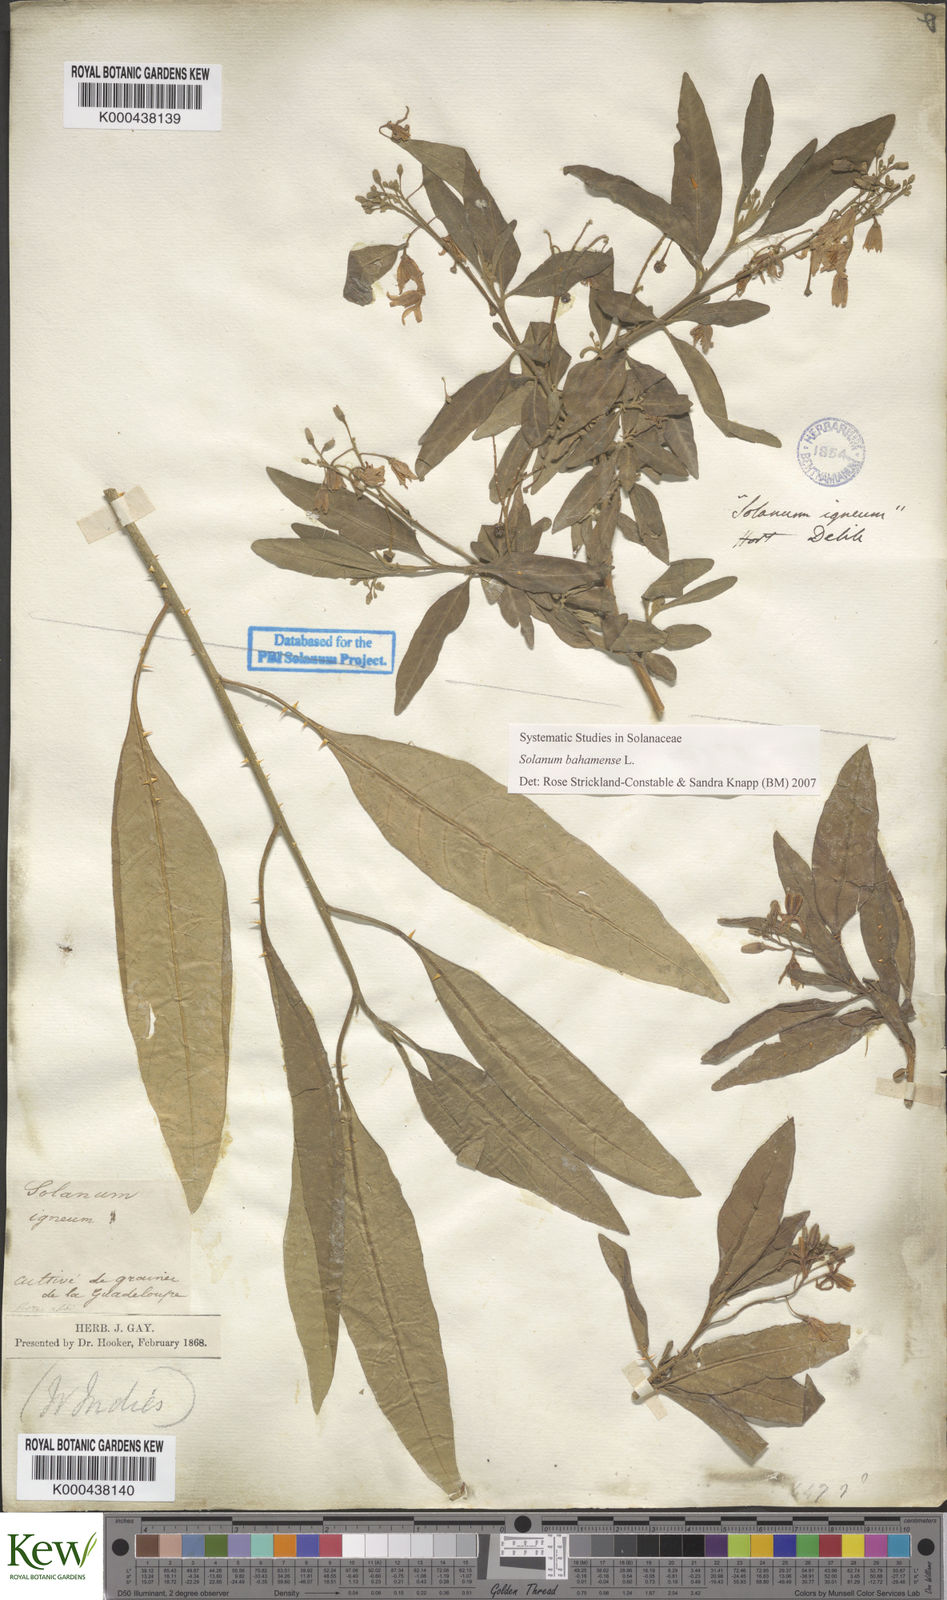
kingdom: Plantae
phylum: Tracheophyta
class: Magnoliopsida
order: Solanales
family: Solanaceae
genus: Solanum
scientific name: Solanum bahamense
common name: Canker-berry
